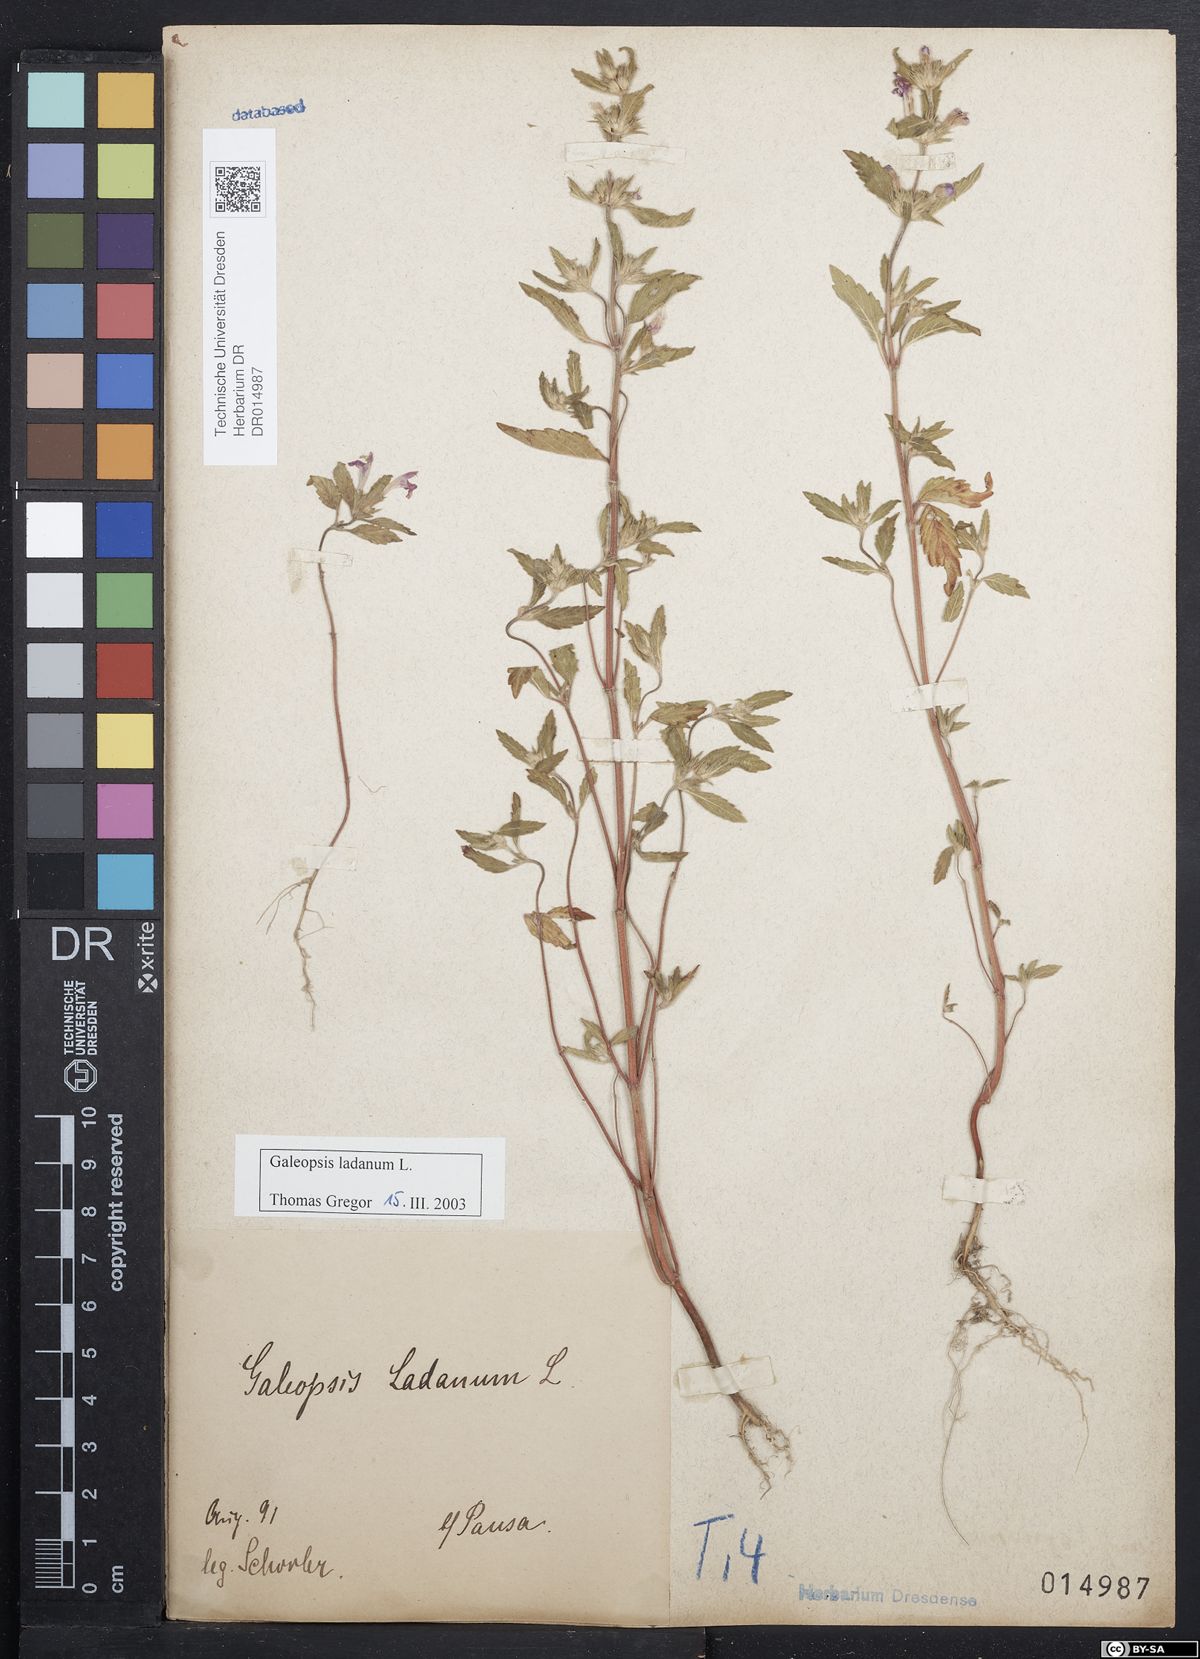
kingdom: Plantae
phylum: Tracheophyta
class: Magnoliopsida
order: Lamiales
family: Lamiaceae
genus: Galeopsis
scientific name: Galeopsis ladanum
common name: Broad-leaved hemp-nettle
